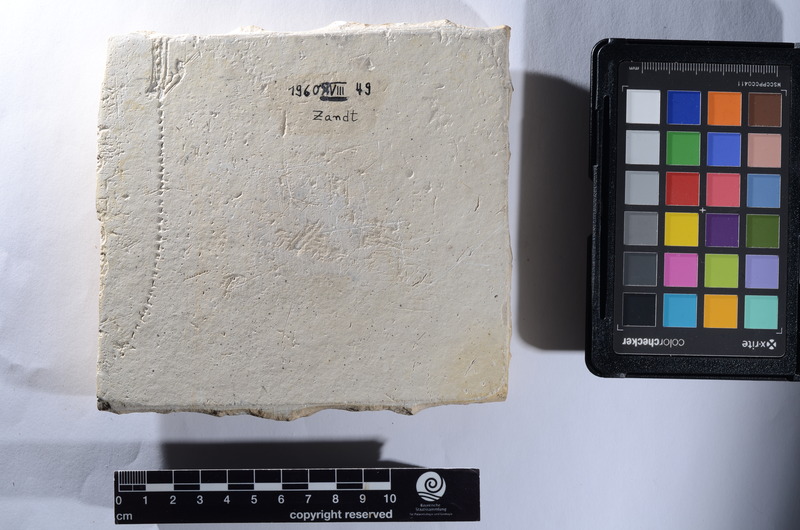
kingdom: Animalia
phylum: Chordata
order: Amiiformes
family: Caturidae
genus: Amblysemius
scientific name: Amblysemius pachyurus
